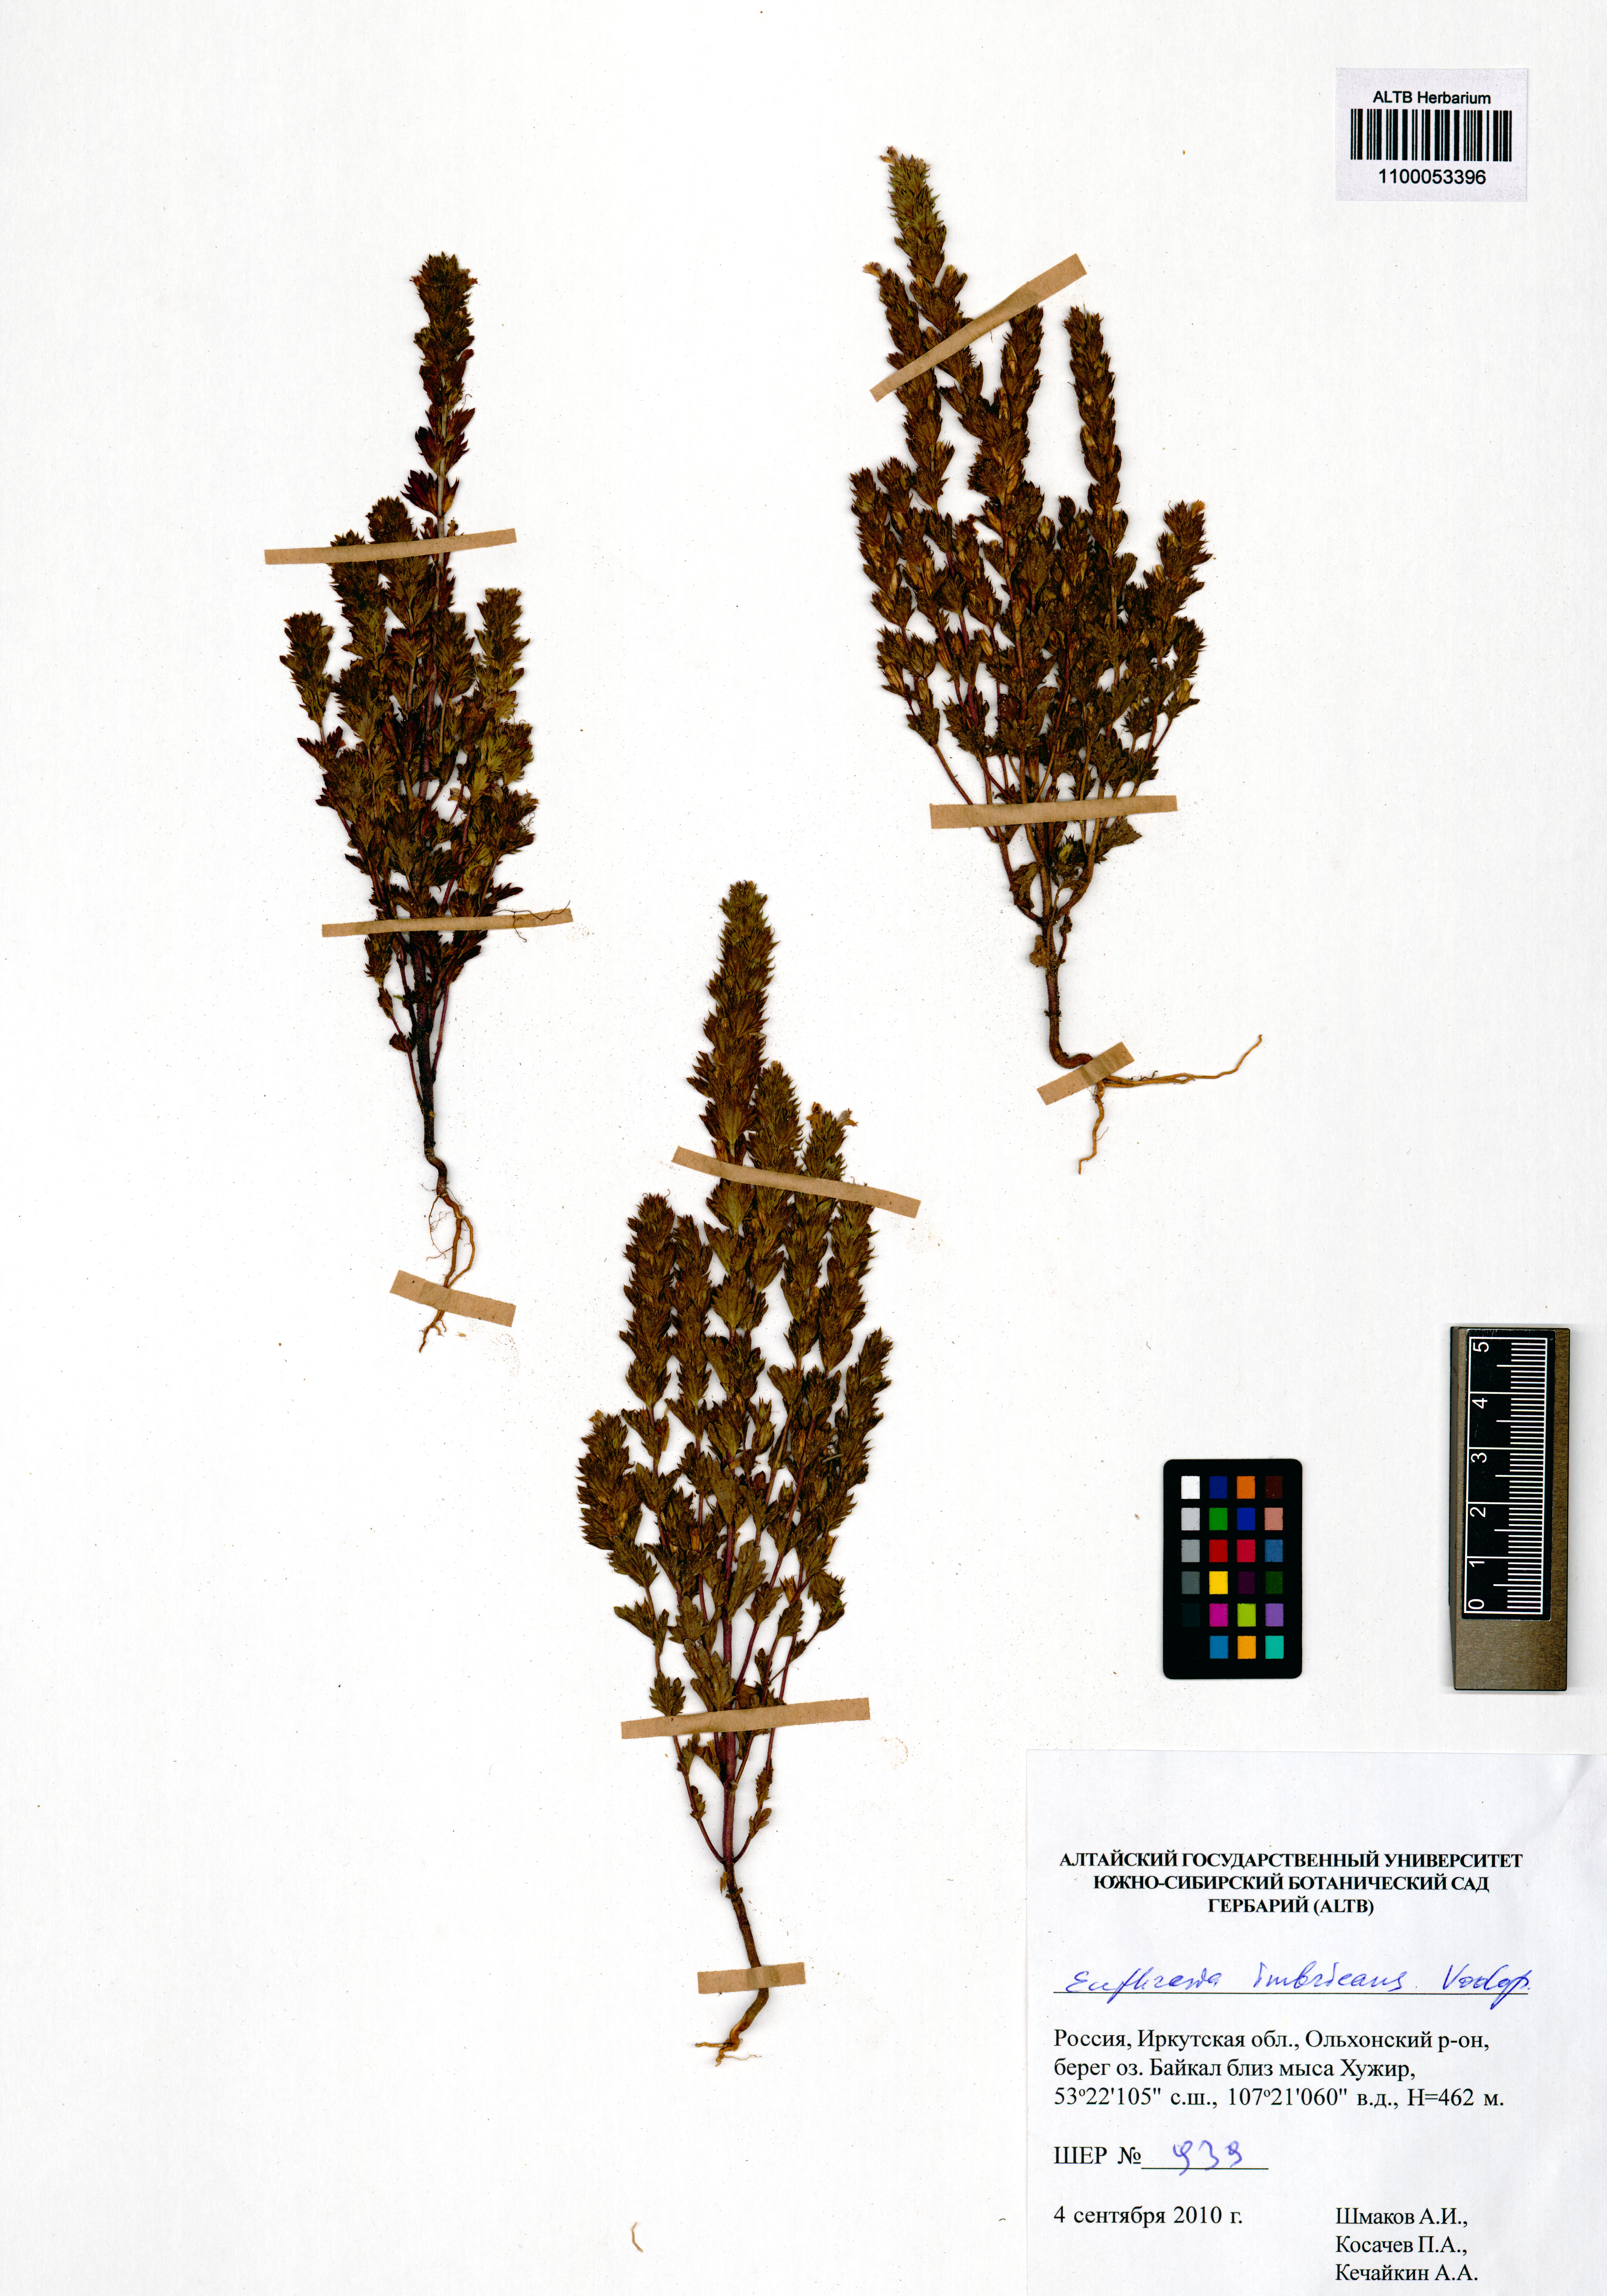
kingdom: Plantae
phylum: Tracheophyta
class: Magnoliopsida
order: Lamiales
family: Orobanchaceae
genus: Euphrasia
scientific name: Euphrasia pectinata
